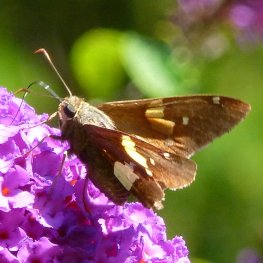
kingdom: Animalia
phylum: Arthropoda
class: Insecta
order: Lepidoptera
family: Hesperiidae
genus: Epargyreus
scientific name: Epargyreus clarus
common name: Silver-spotted Skipper
